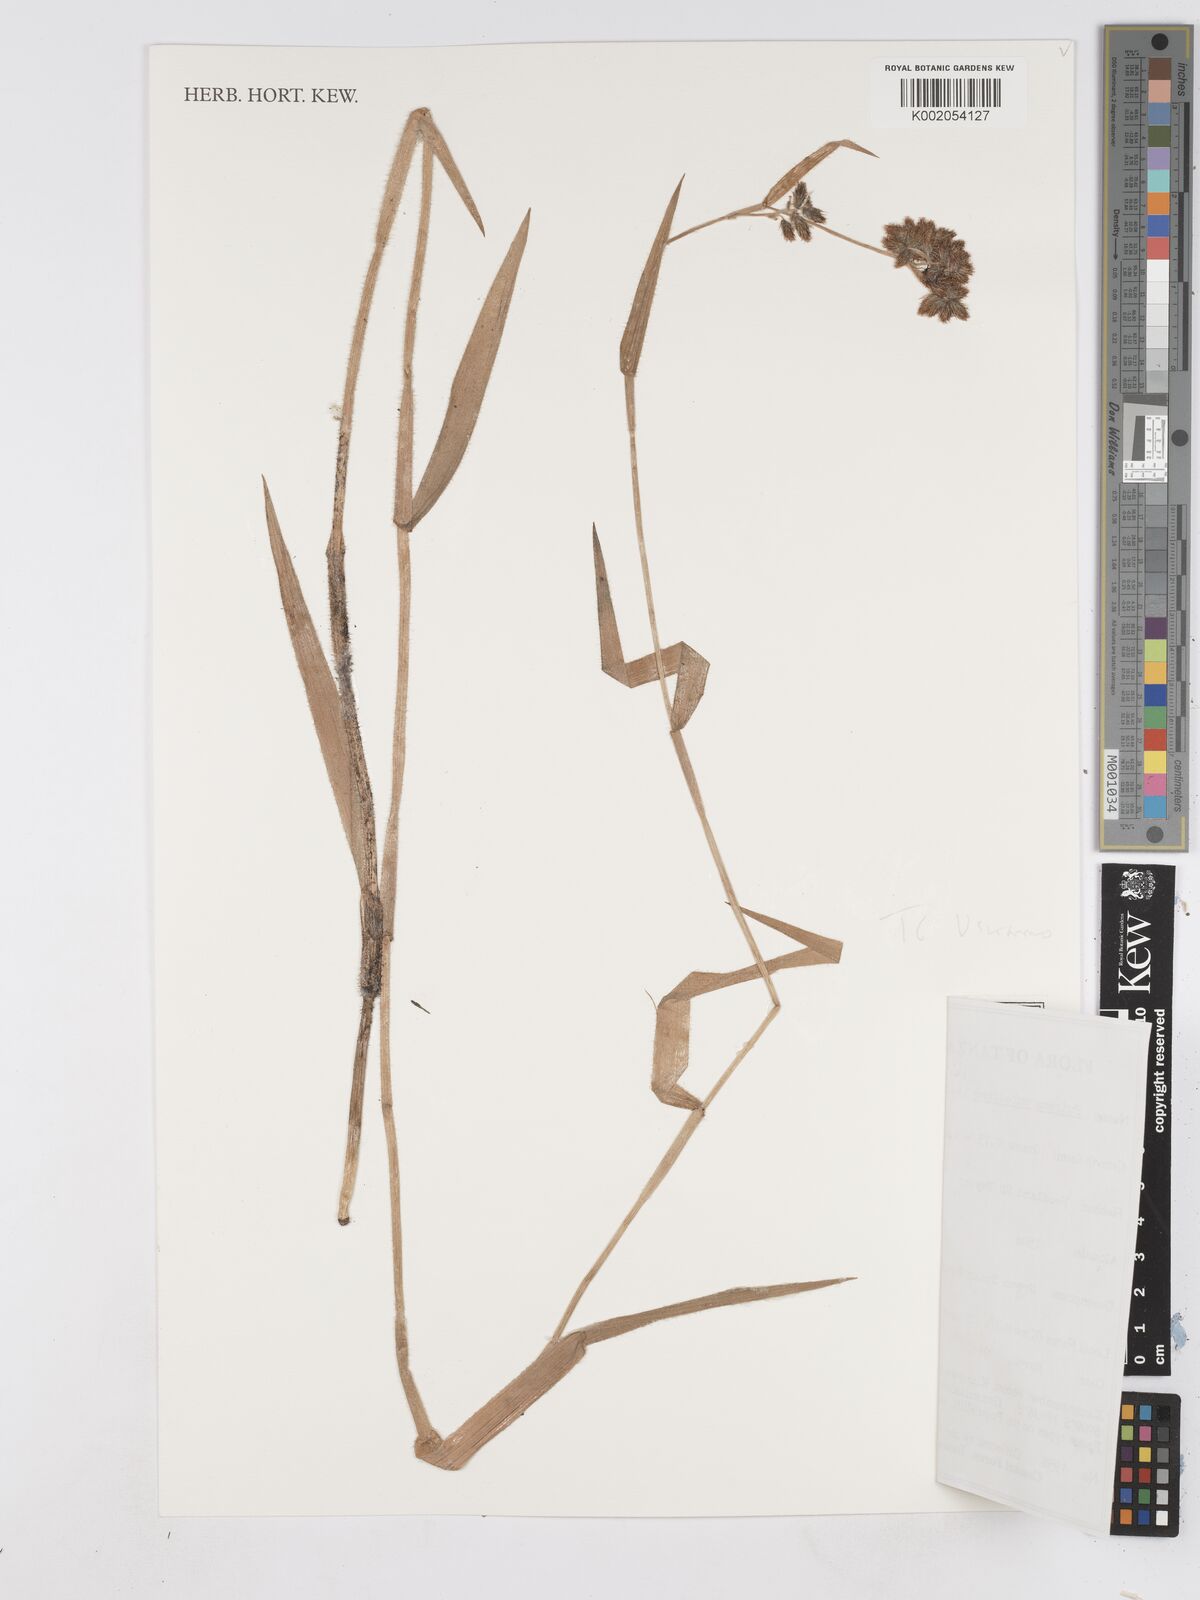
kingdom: Plantae
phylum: Tracheophyta
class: Liliopsida
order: Poales
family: Cyperaceae
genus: Fuirena
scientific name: Fuirena pubescens
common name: Hairy sedge
